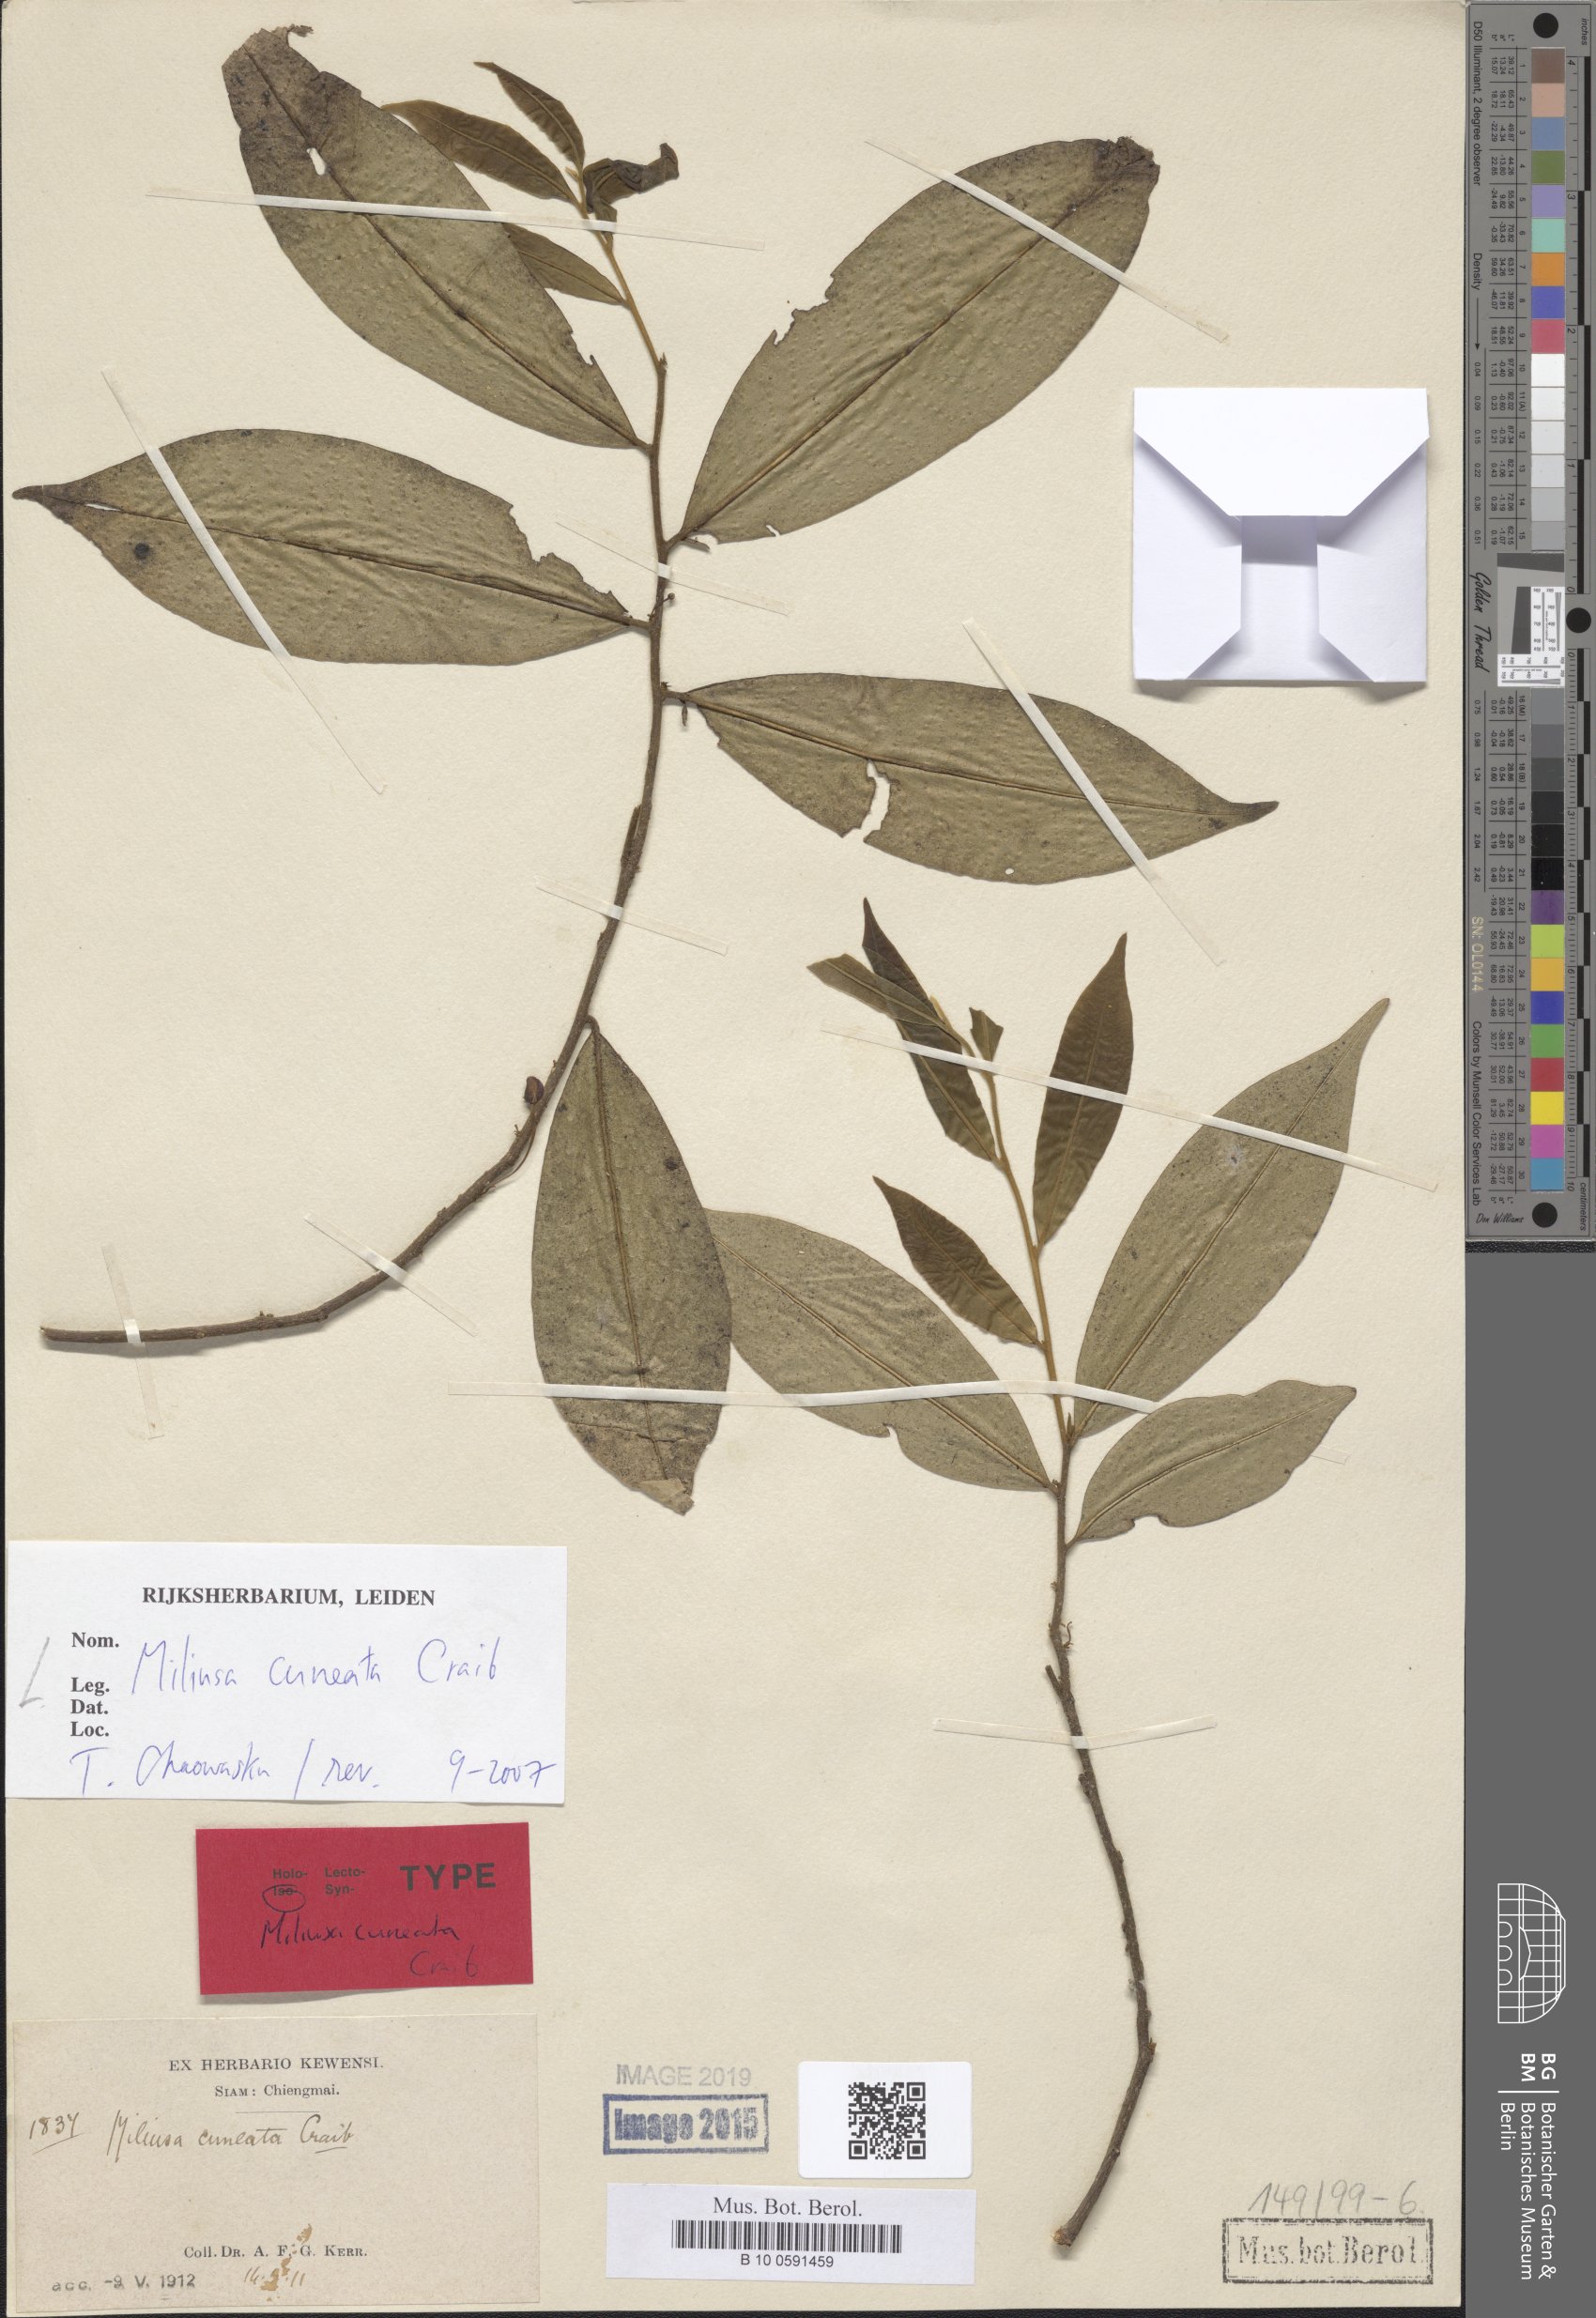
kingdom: Plantae
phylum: Tracheophyta
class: Magnoliopsida
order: Magnoliales
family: Annonaceae
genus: Miliusa
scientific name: Miliusa cuneata
